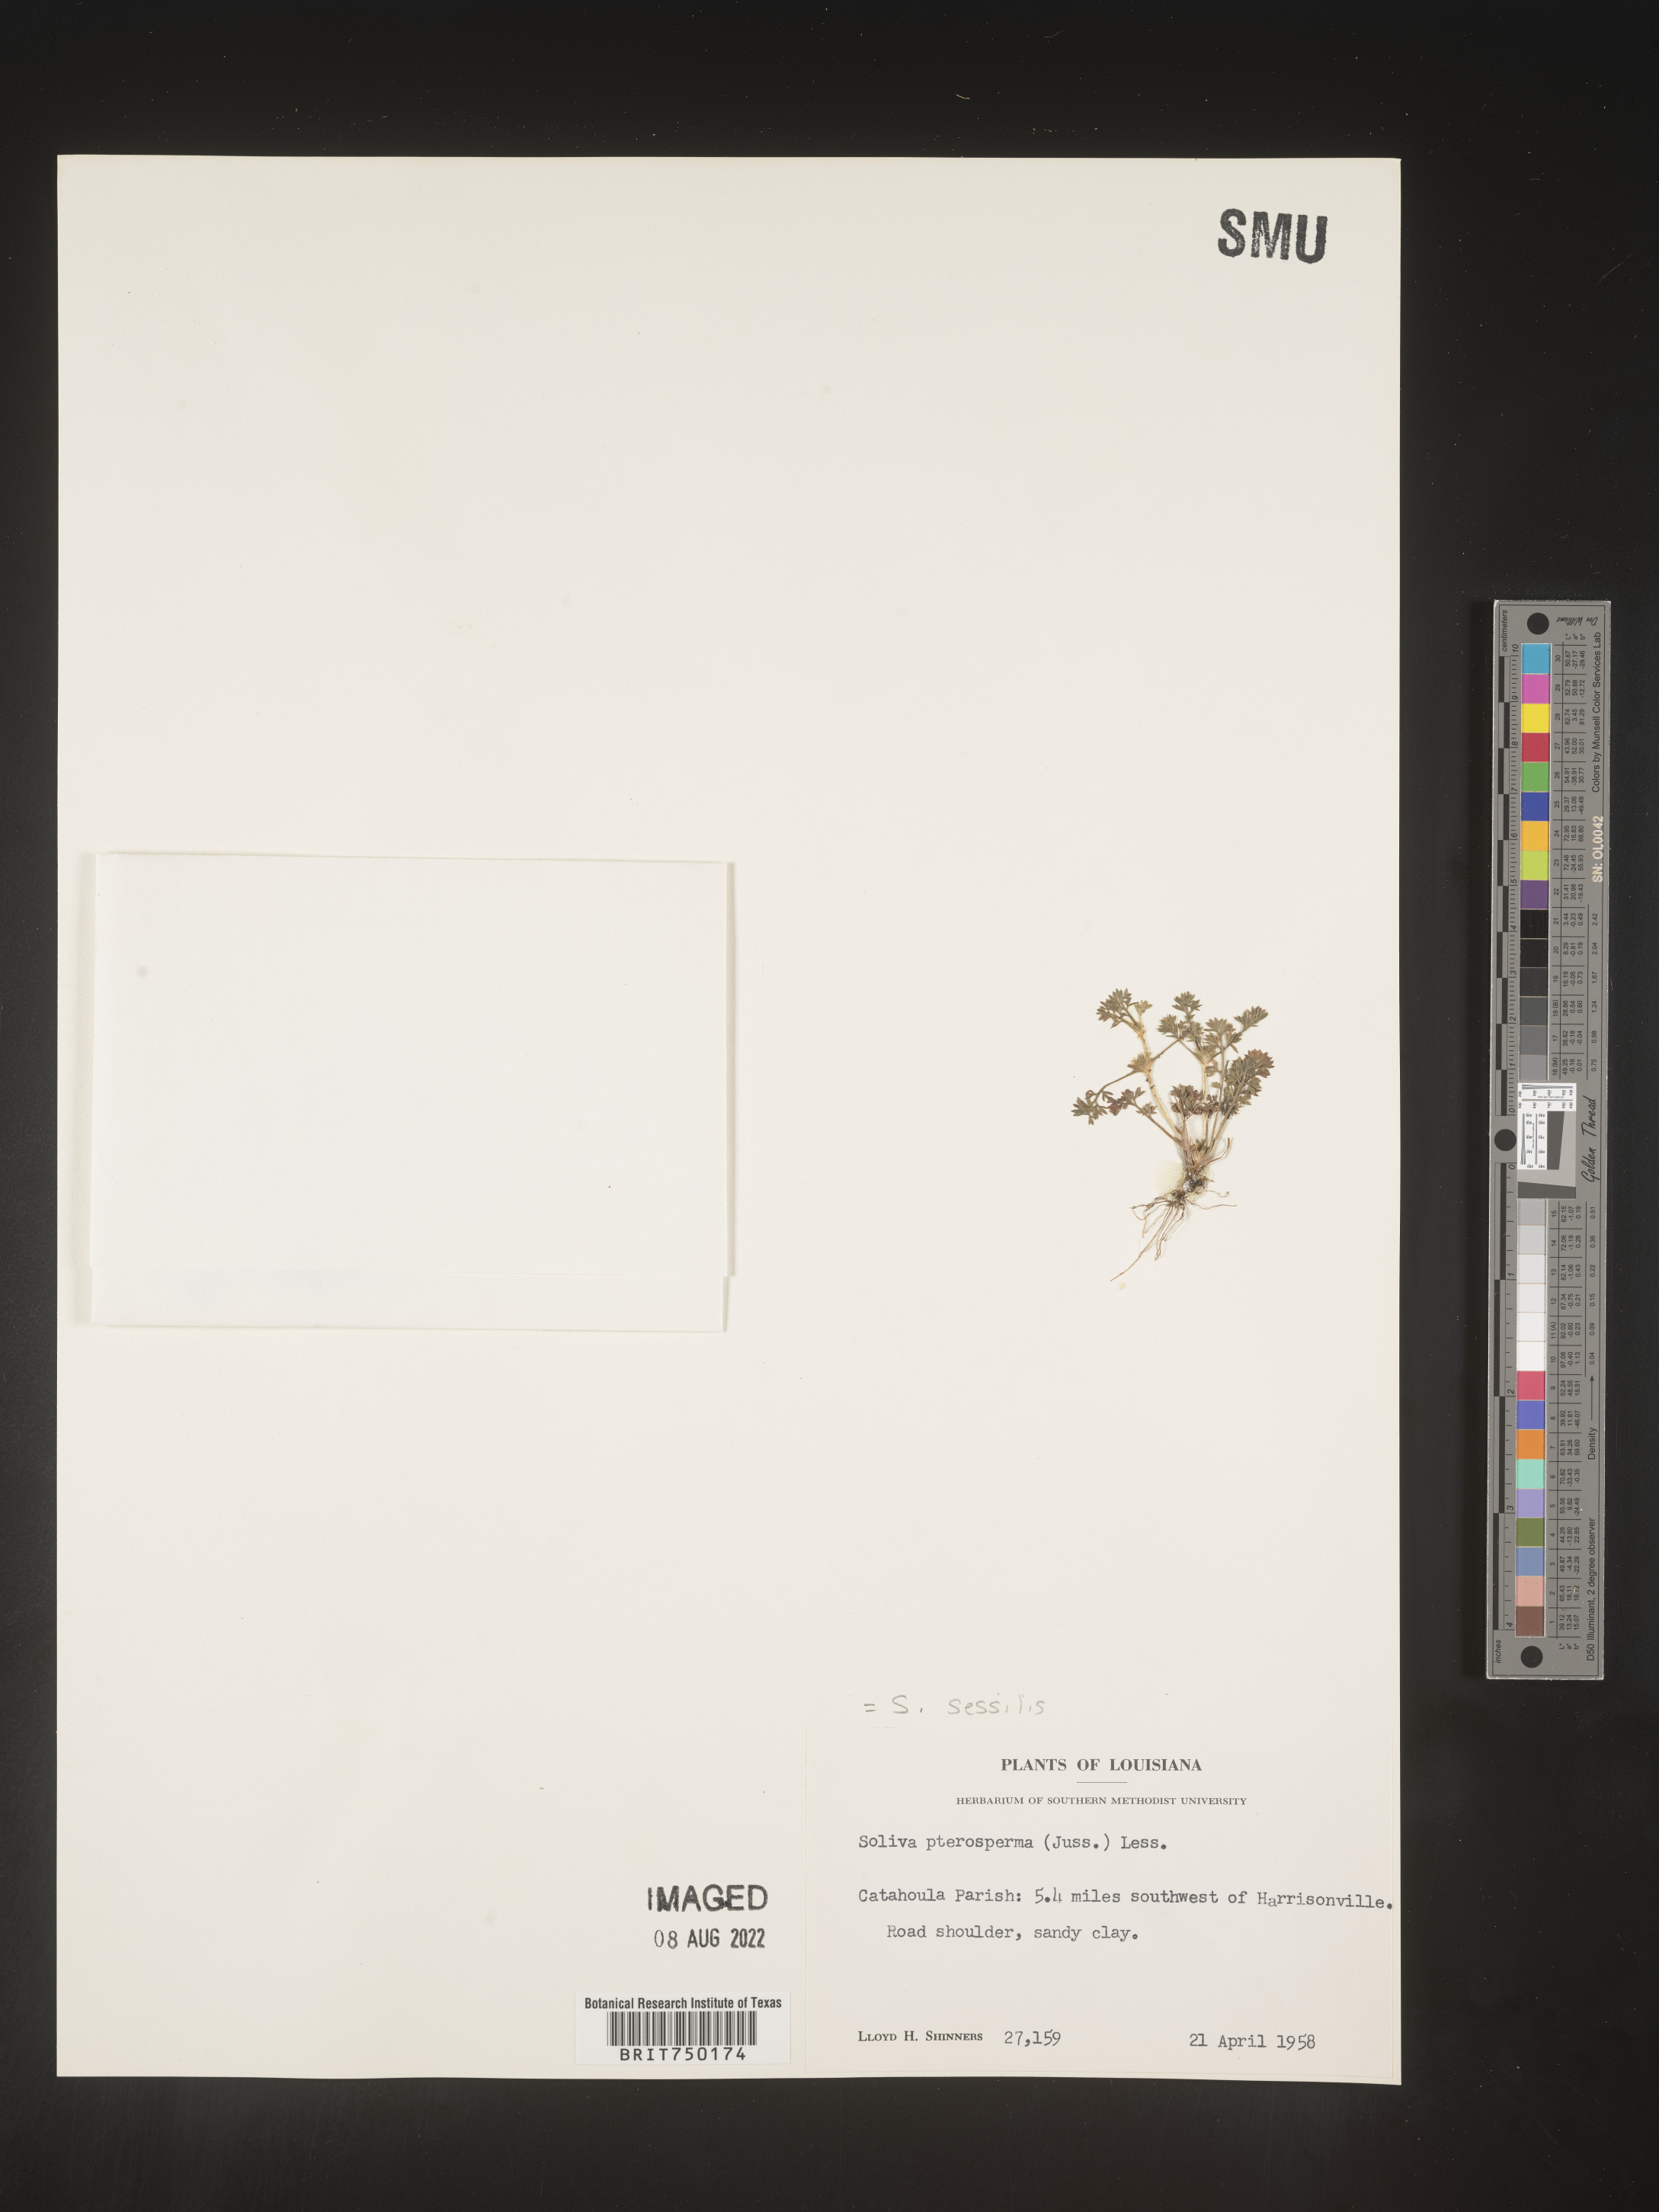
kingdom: Plantae
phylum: Tracheophyta
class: Magnoliopsida
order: Asterales
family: Asteraceae
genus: Soliva
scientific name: Soliva sessilis
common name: Field burrweed
